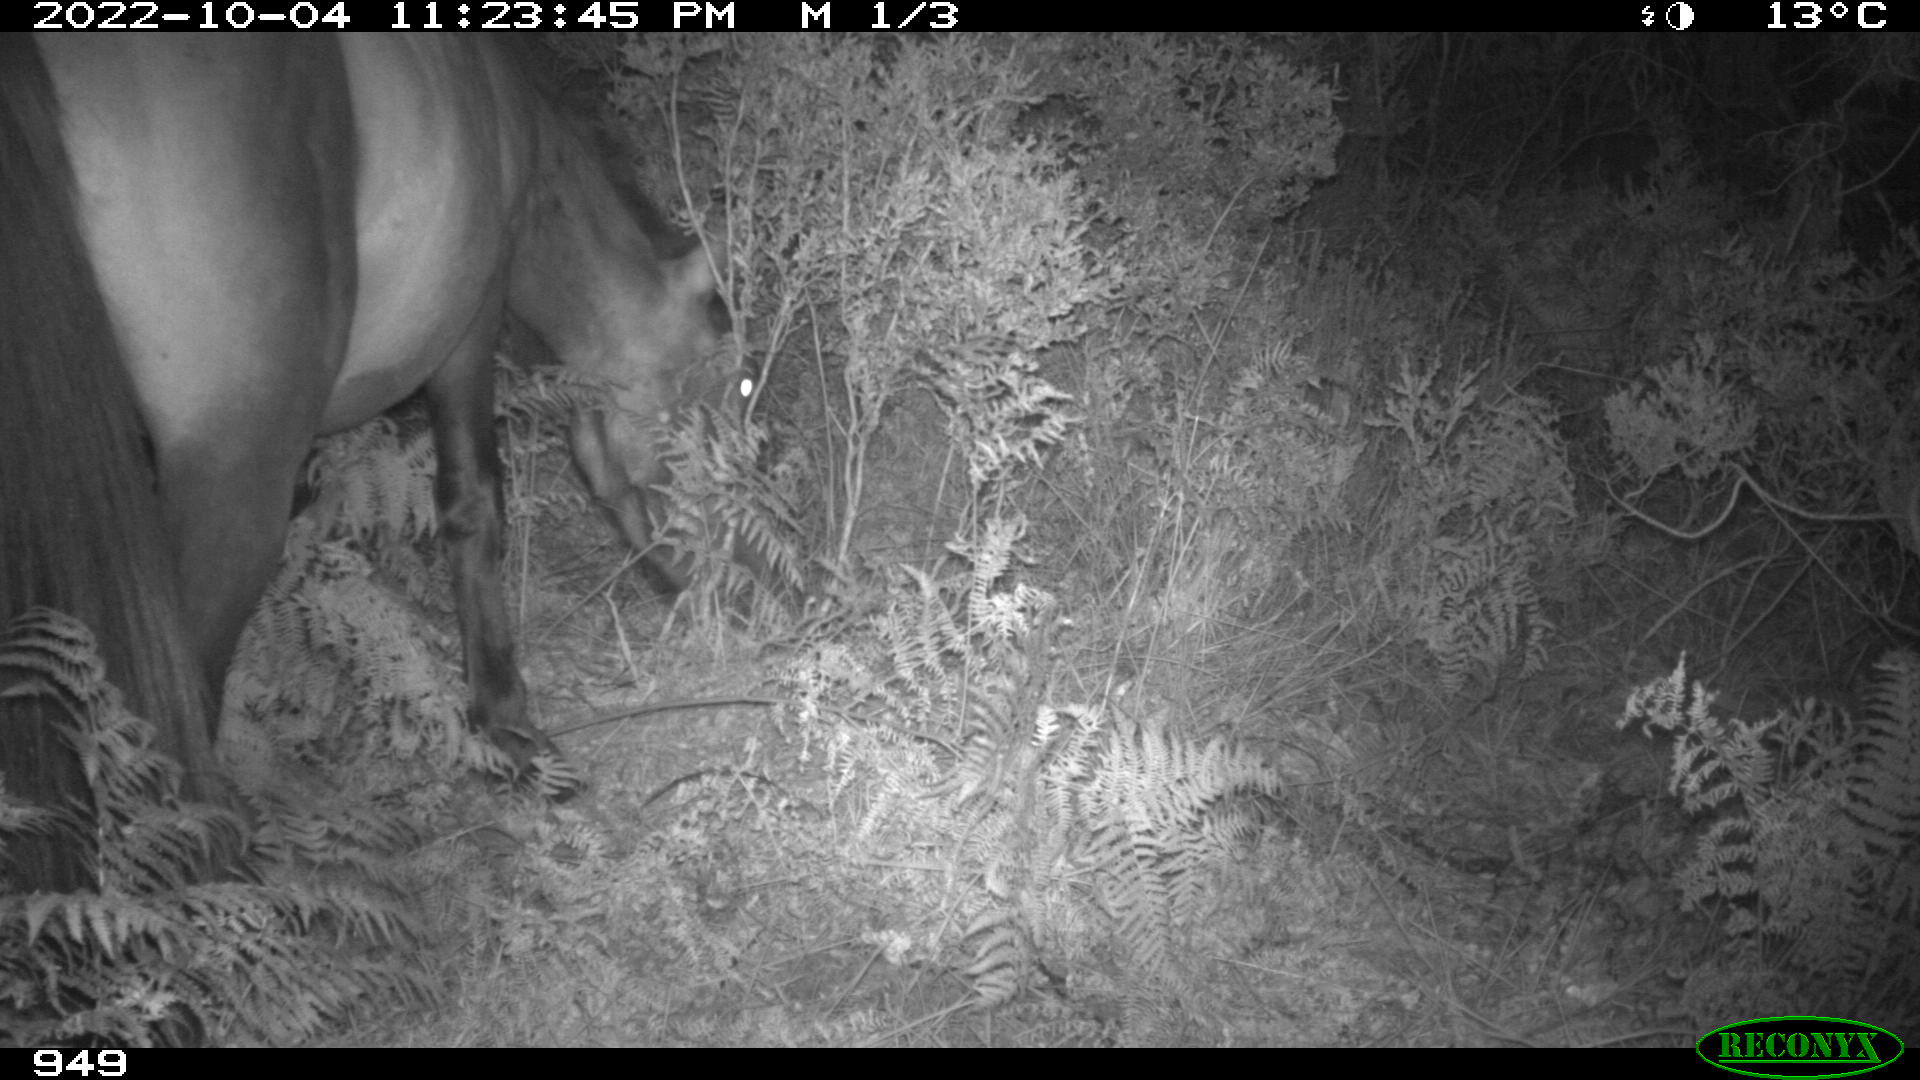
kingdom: Animalia
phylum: Chordata
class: Mammalia
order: Perissodactyla
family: Equidae
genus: Equus
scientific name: Equus caballus
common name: Horse
